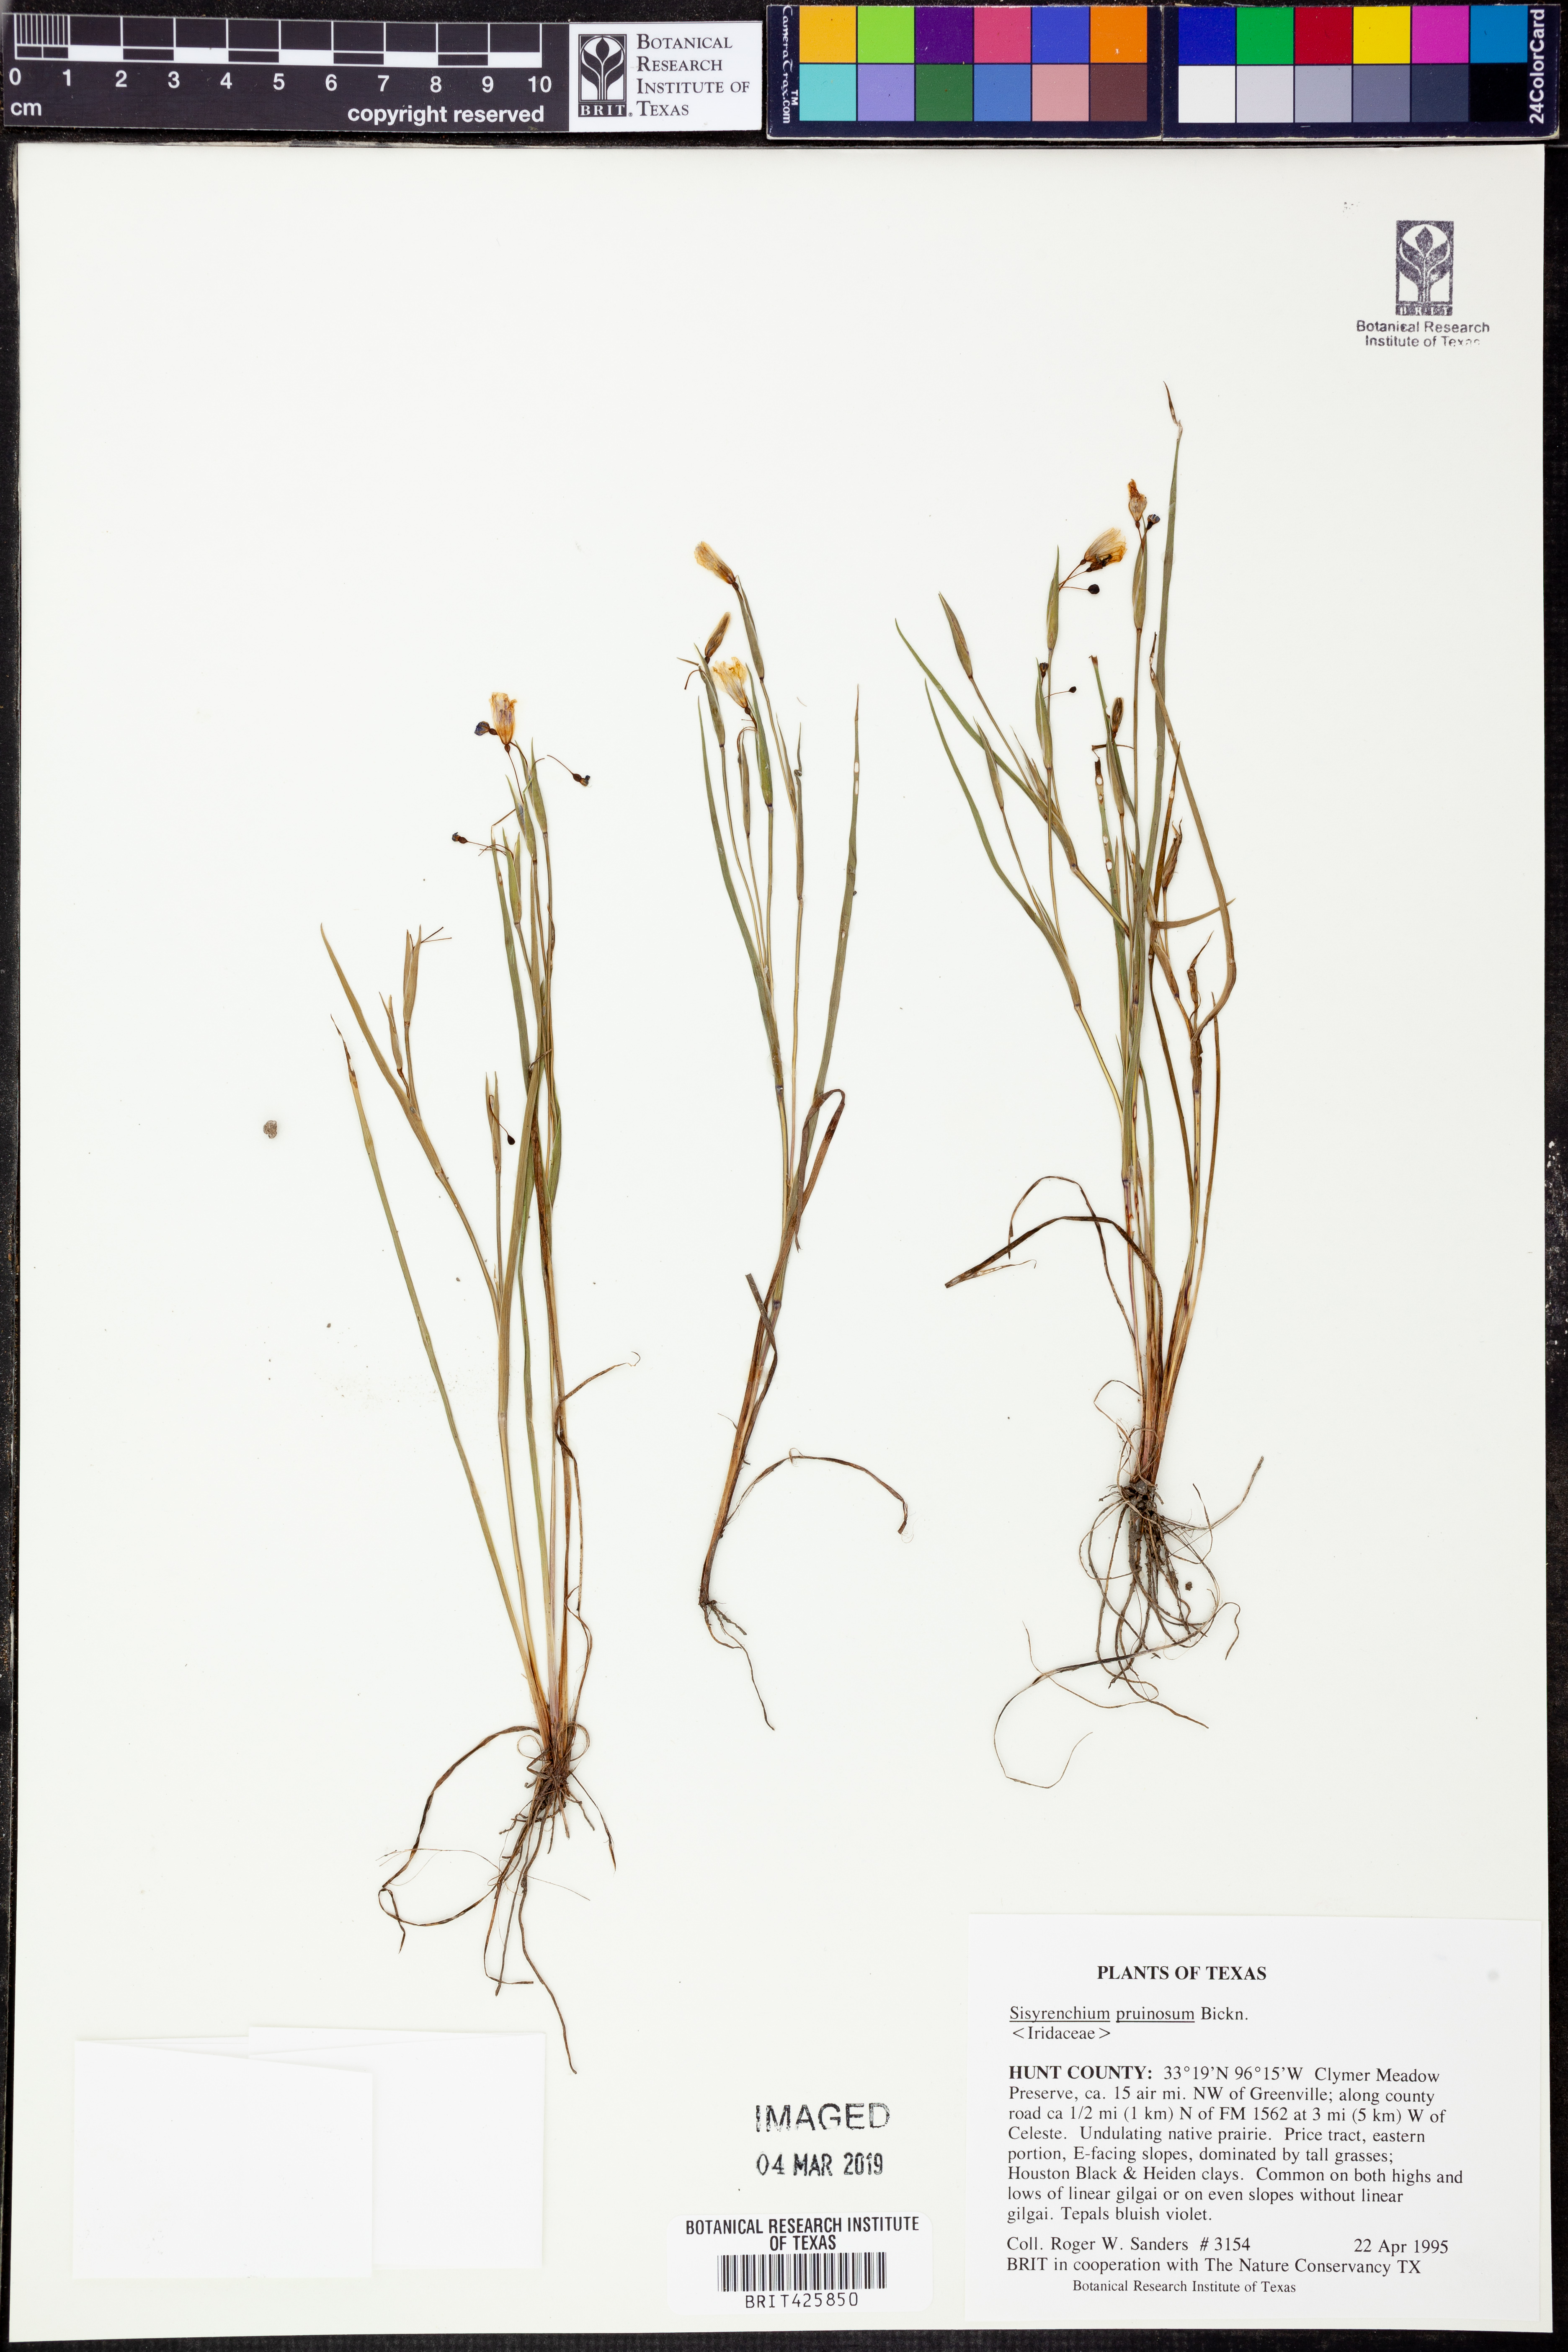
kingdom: Plantae
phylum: Tracheophyta
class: Liliopsida
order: Asparagales
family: Iridaceae
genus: Sisyrinchium
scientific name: Sisyrinchium pruinosum
